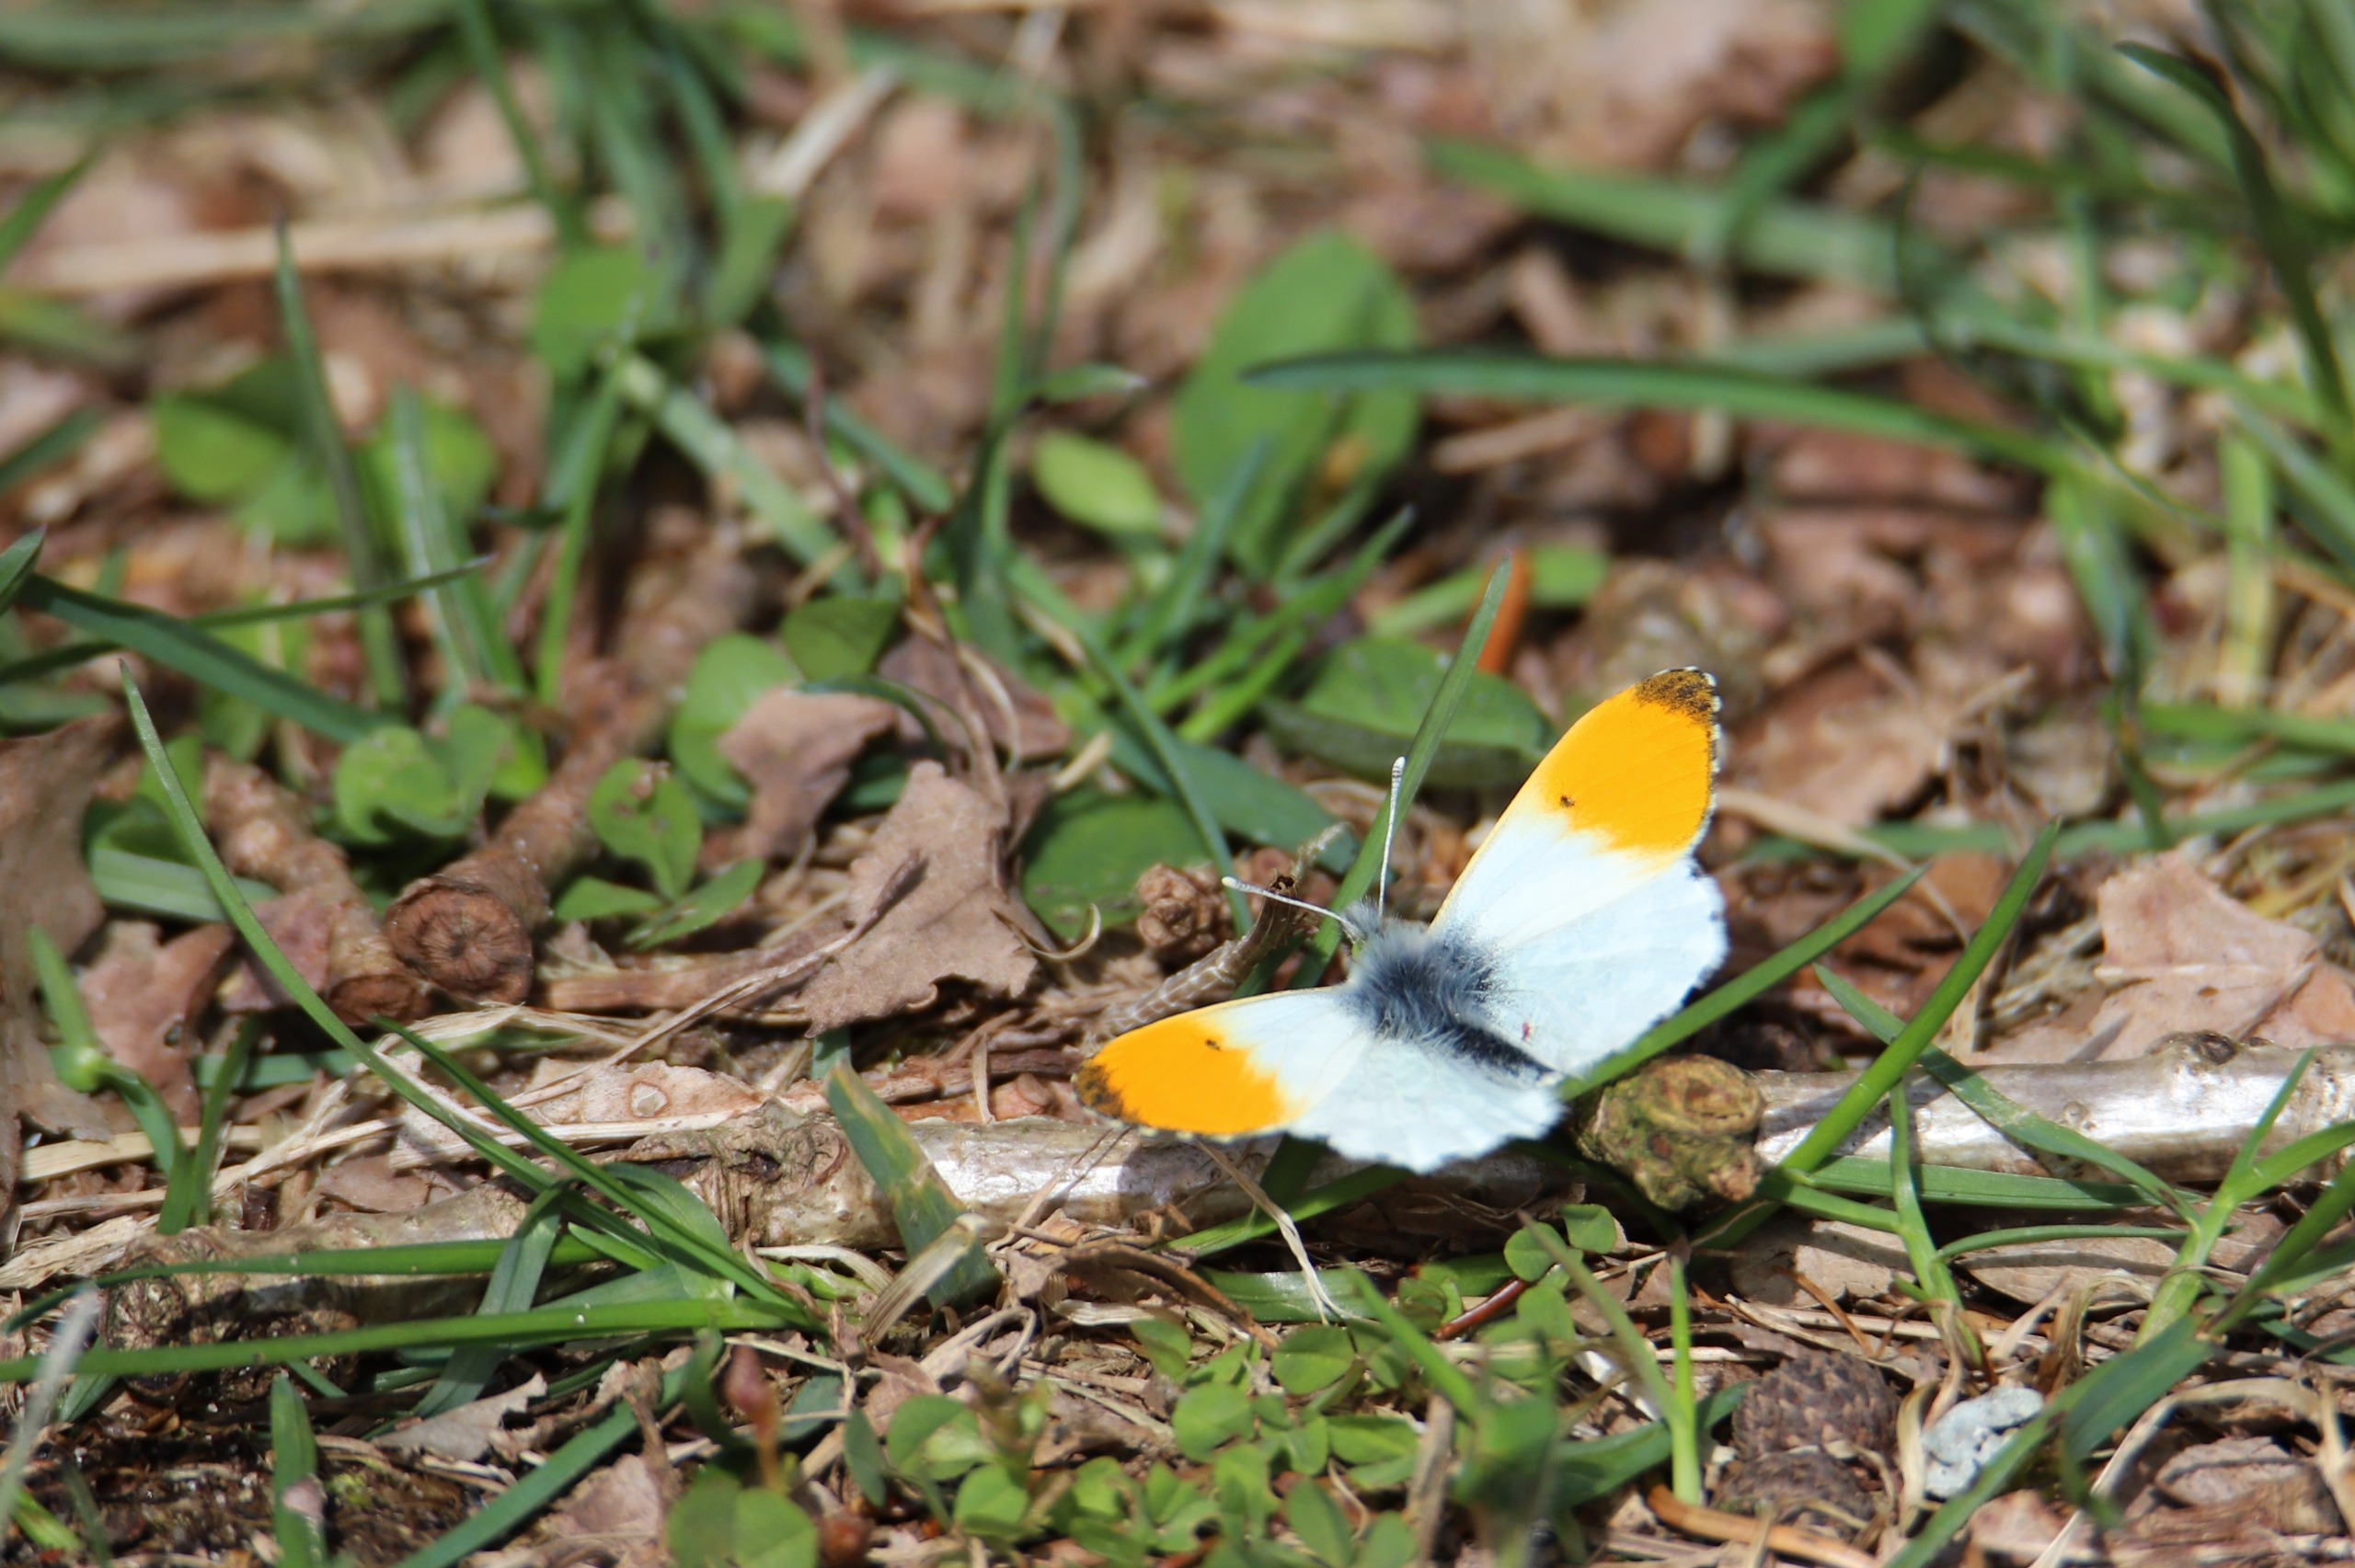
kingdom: Animalia
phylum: Arthropoda
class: Insecta
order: Lepidoptera
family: Pieridae
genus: Anthocharis
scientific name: Anthocharis cardamines
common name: Aurora
